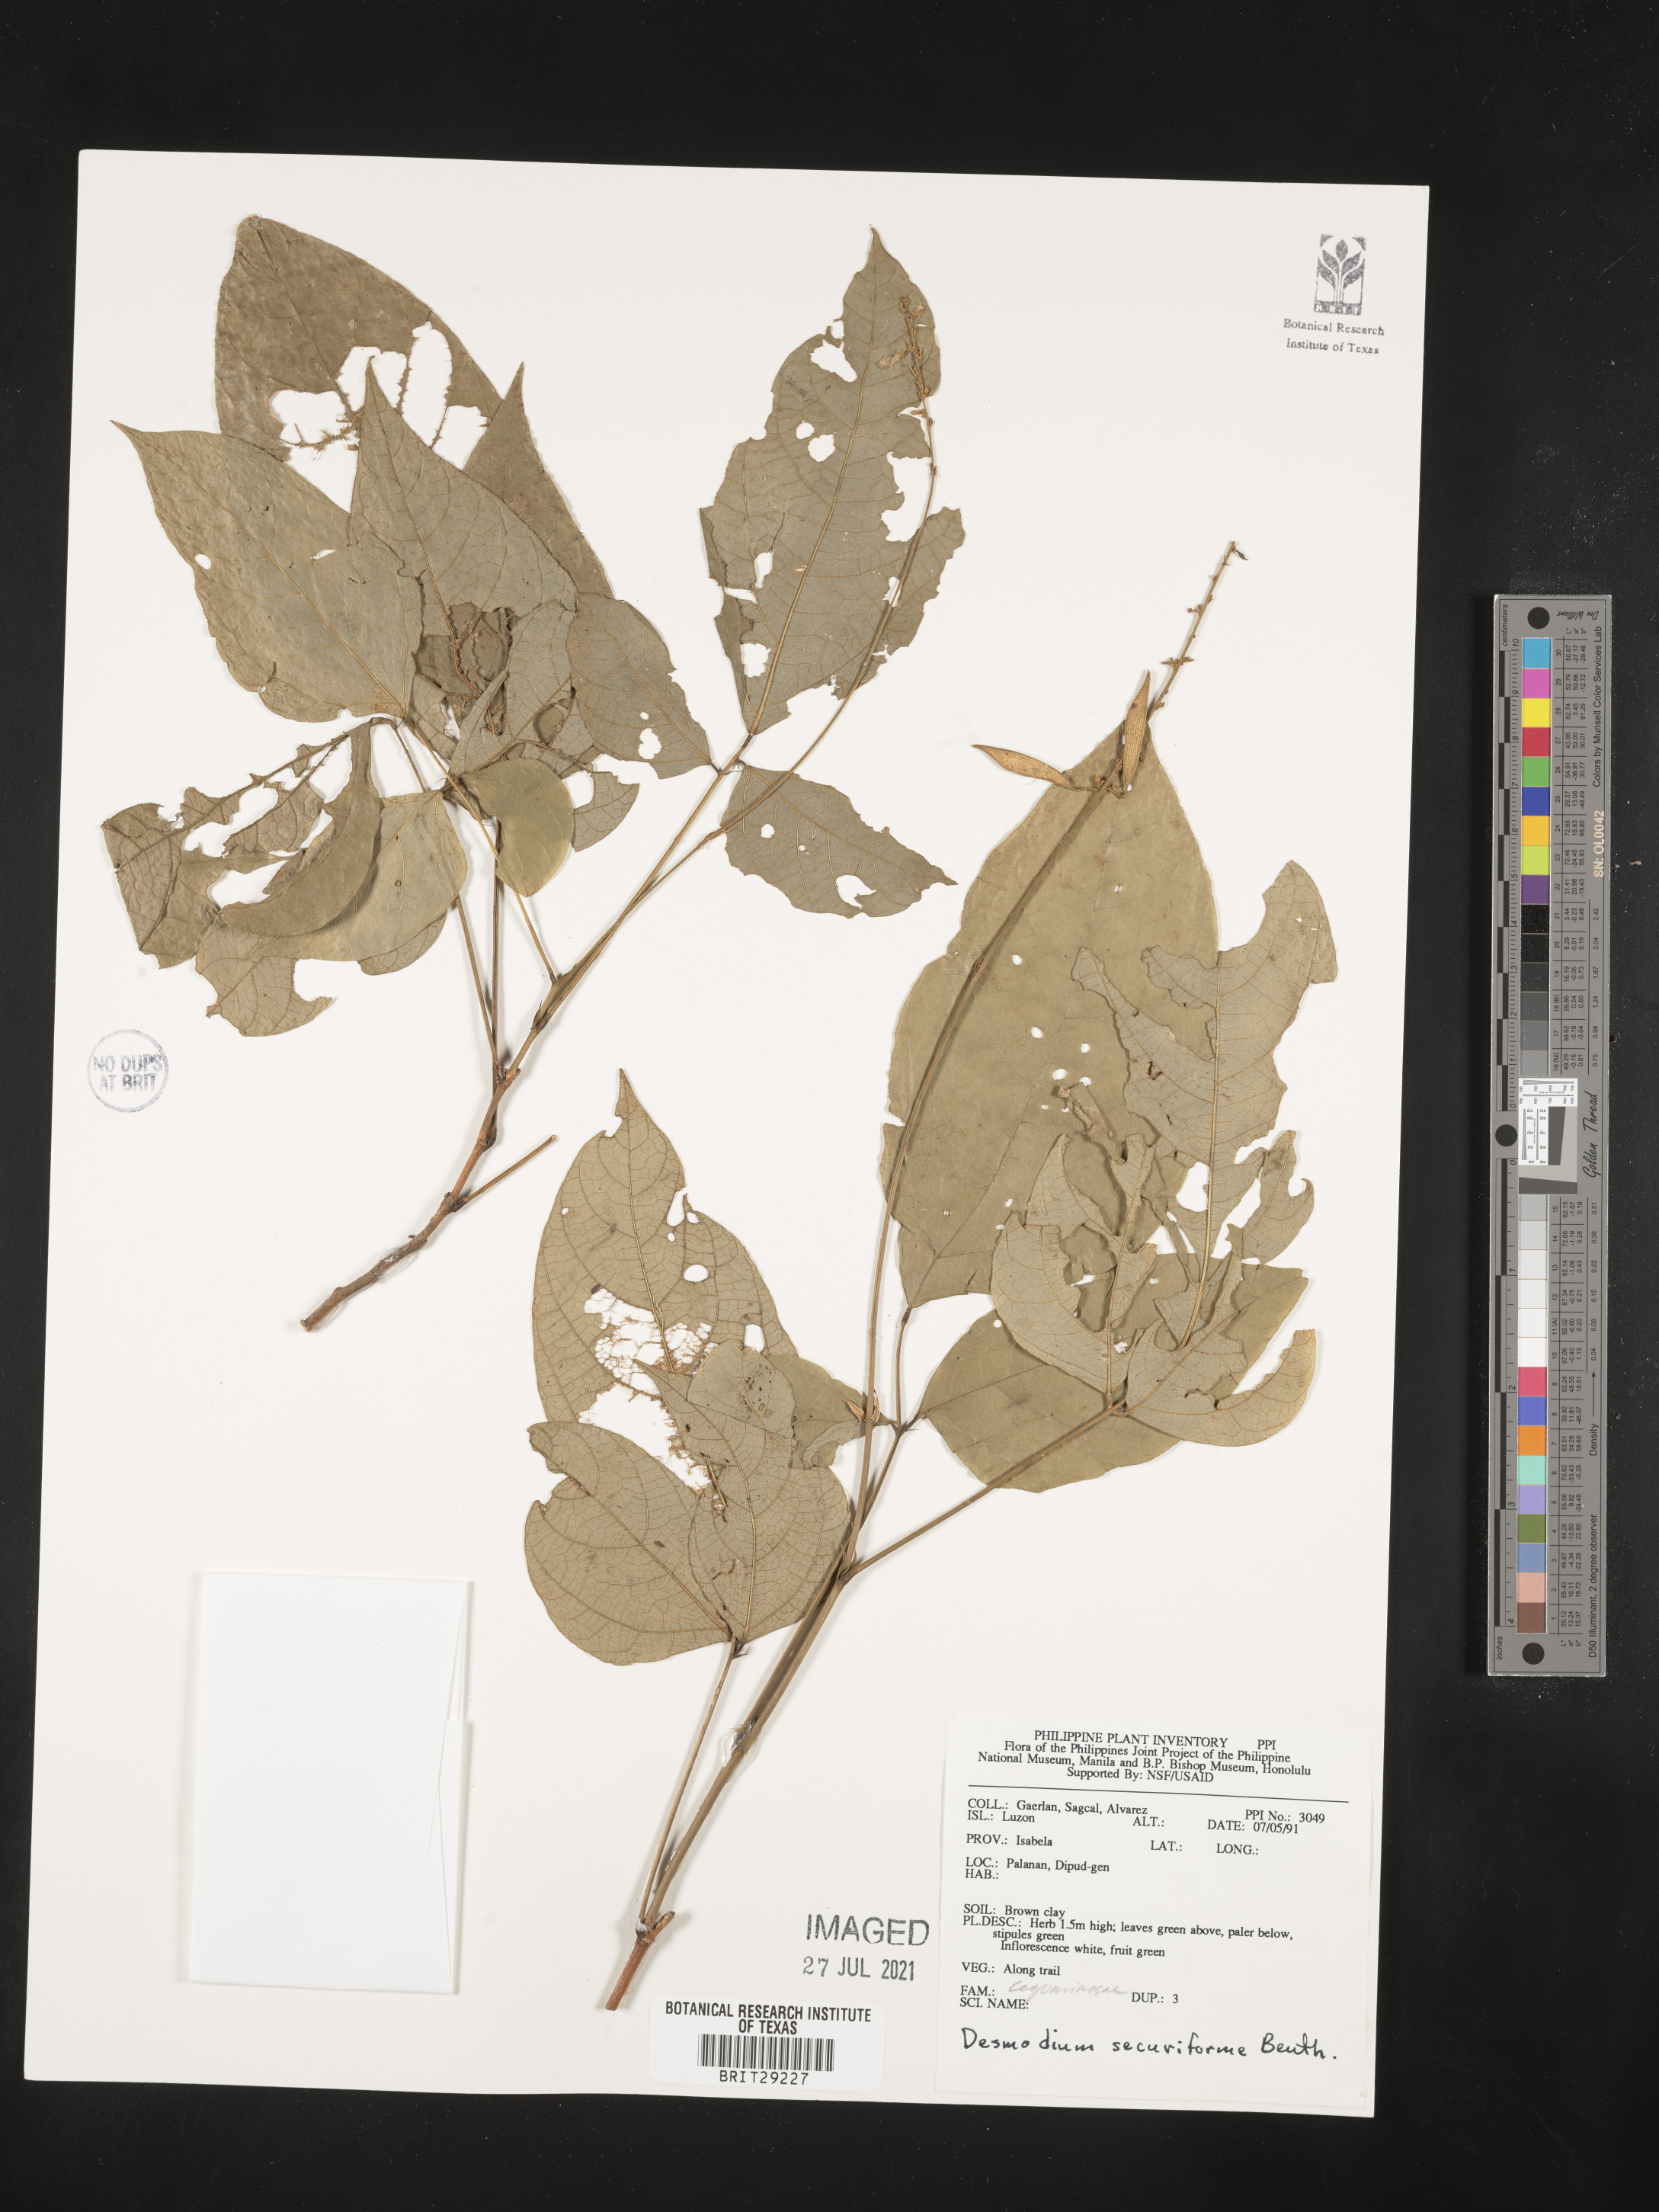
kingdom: Plantae
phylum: Tracheophyta
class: Magnoliopsida
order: Fabales
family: Fabaceae
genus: Monarthrocarpus
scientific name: Monarthrocarpus securiformis
